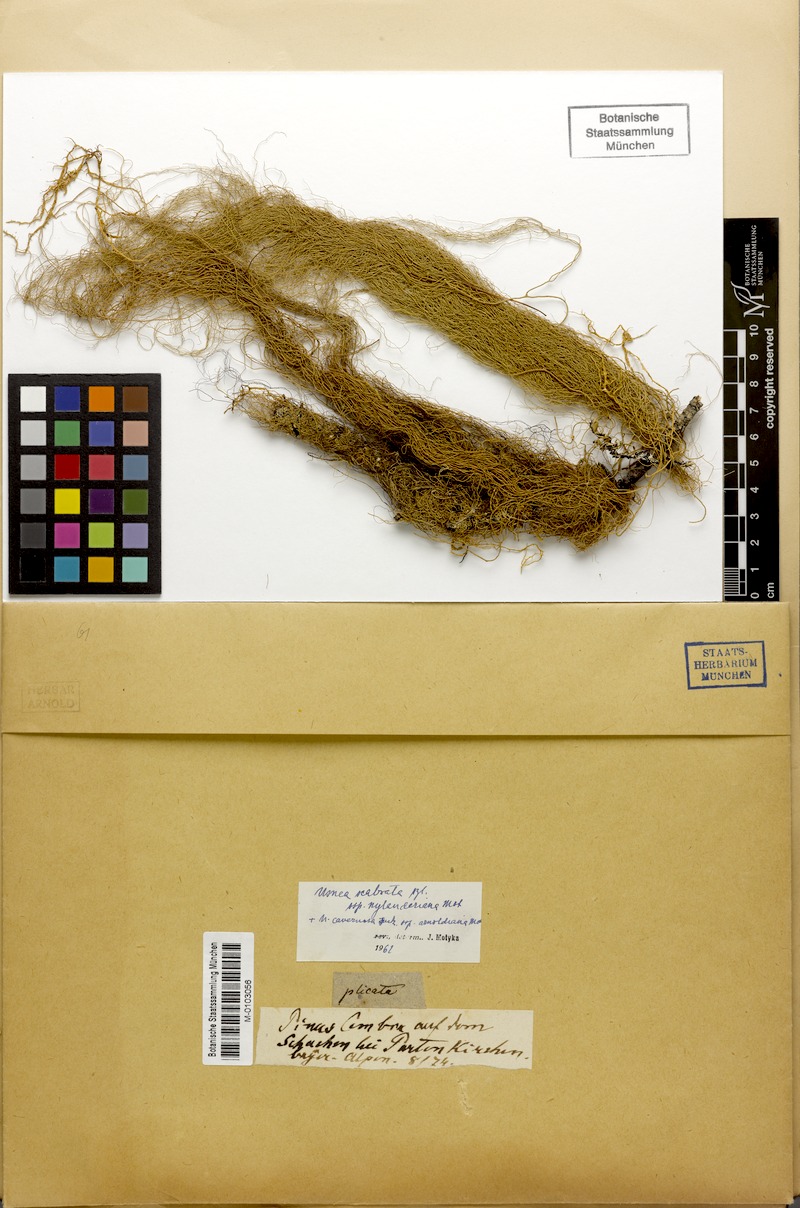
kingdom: Fungi
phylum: Ascomycota
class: Lecanoromycetes
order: Lecanorales
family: Parmeliaceae
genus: Usnea
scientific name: Usnea barbata
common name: Old man's beard lichen
